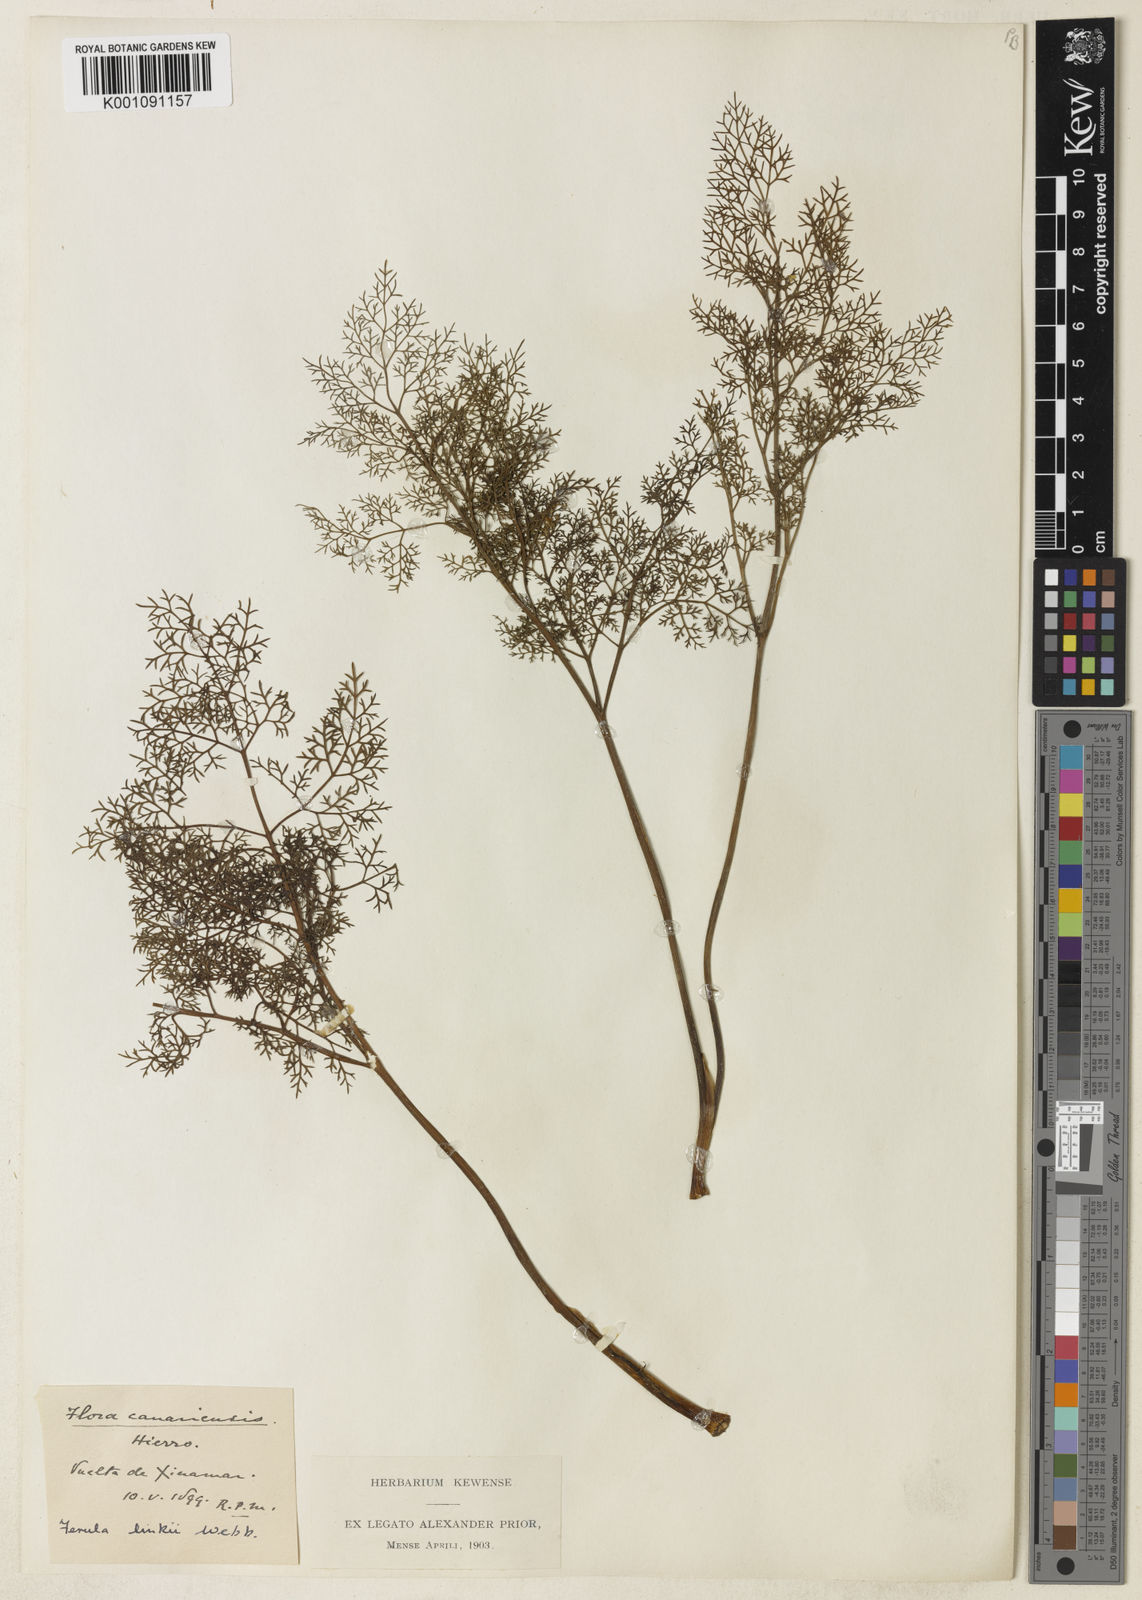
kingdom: Plantae
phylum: Tracheophyta
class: Magnoliopsida
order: Apiales
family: Apiaceae
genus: Ferula
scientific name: Ferula communis
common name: Giant fennel
